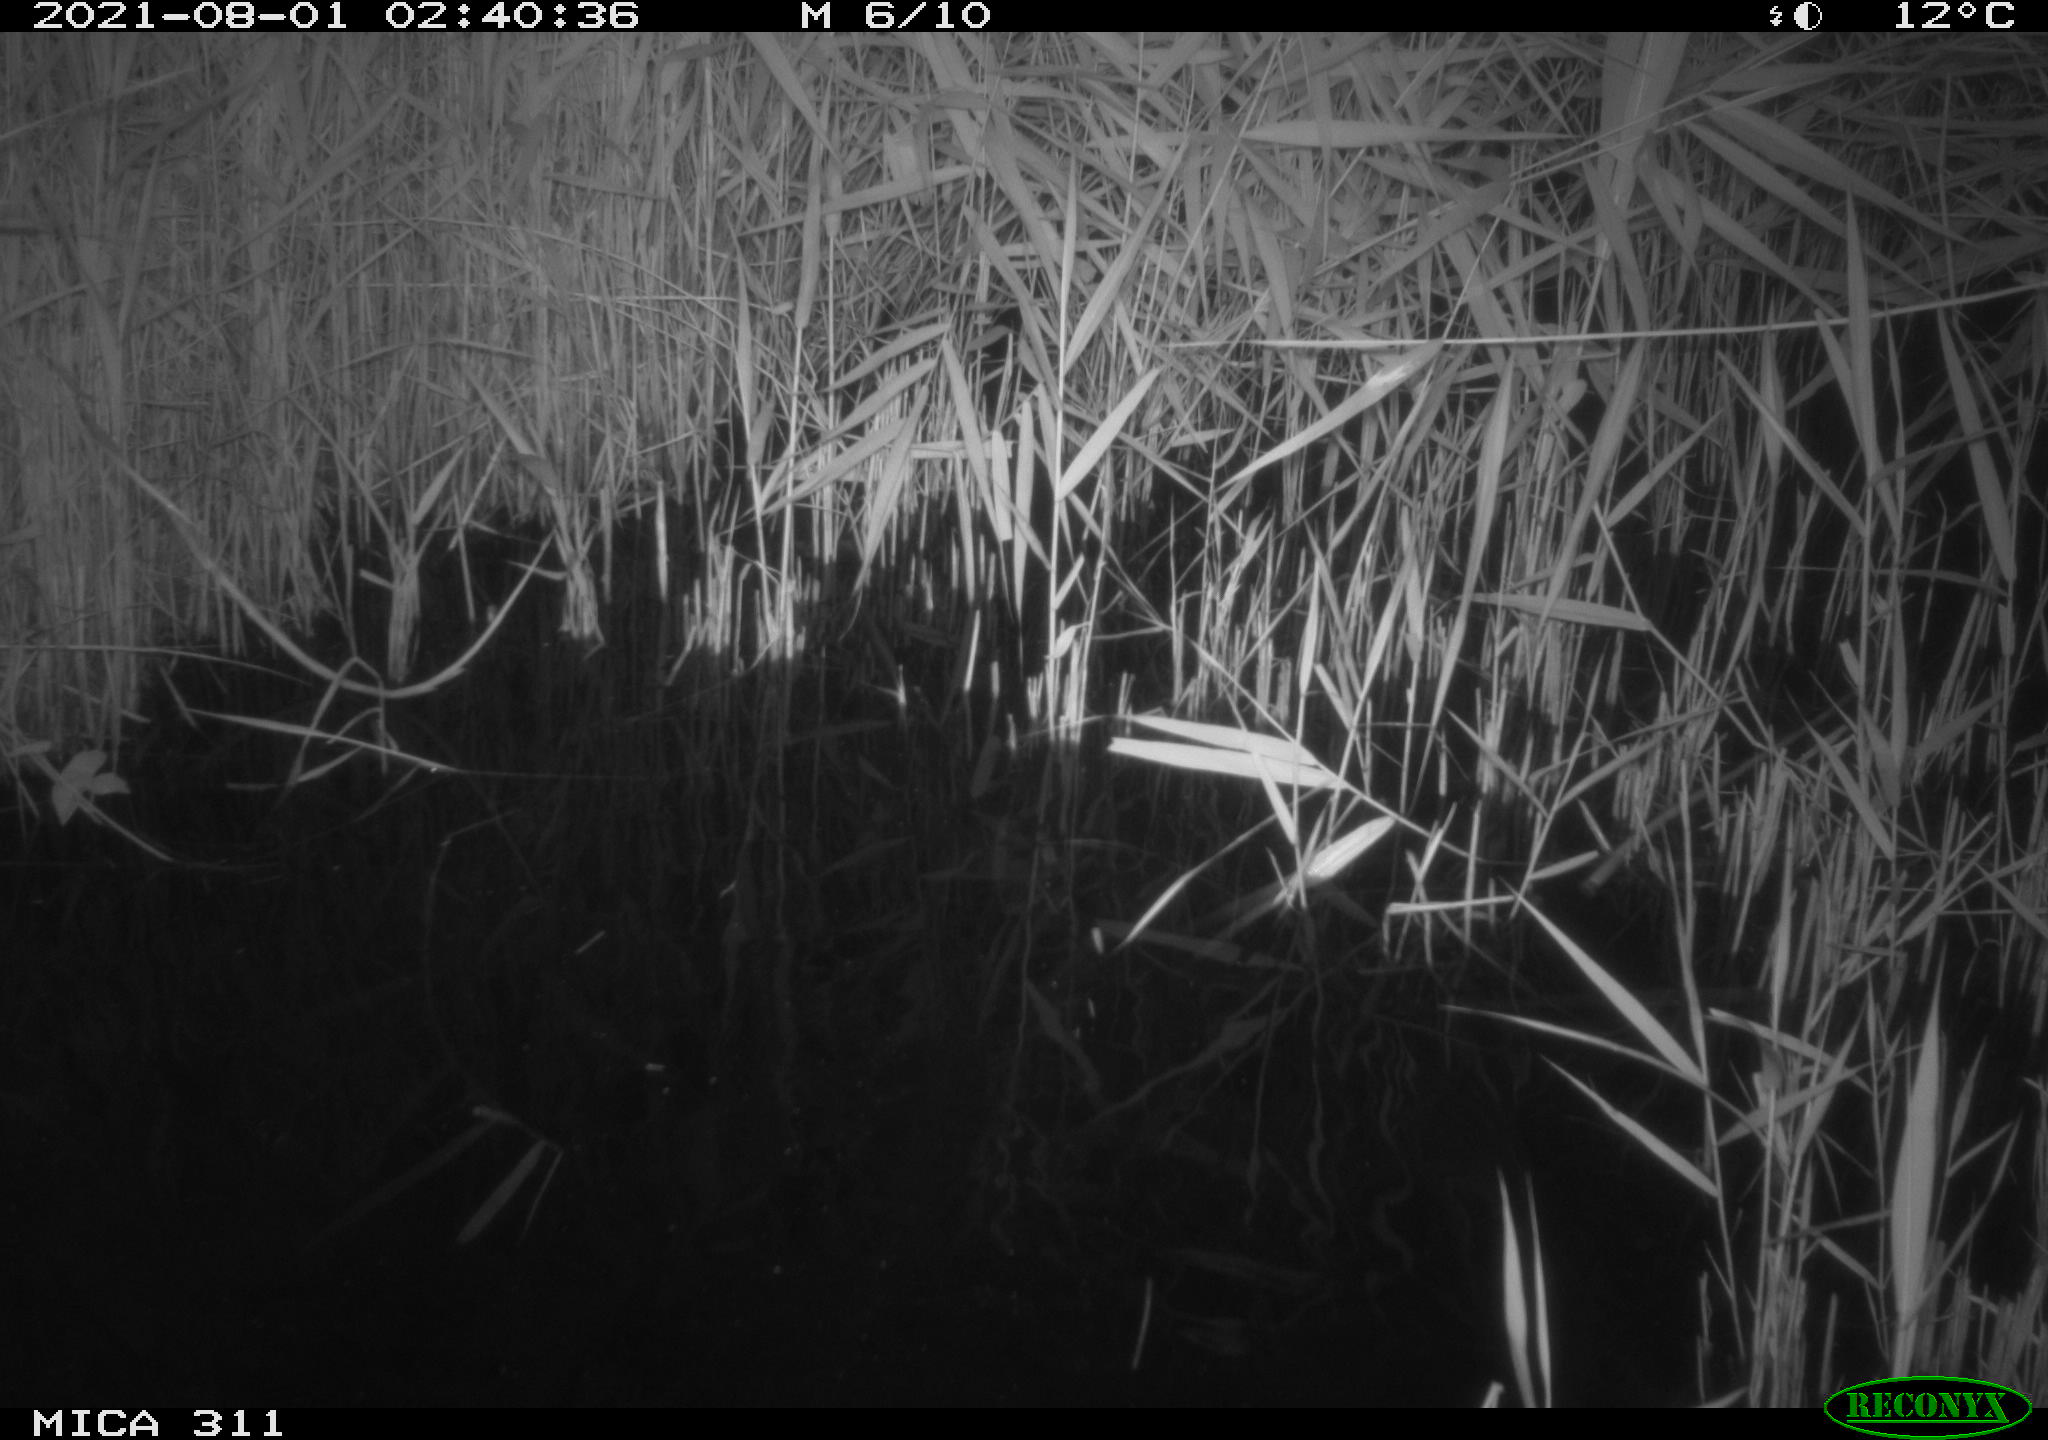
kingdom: Animalia
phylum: Chordata
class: Mammalia
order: Rodentia
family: Muridae
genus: Rattus
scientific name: Rattus norvegicus
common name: Brown rat
